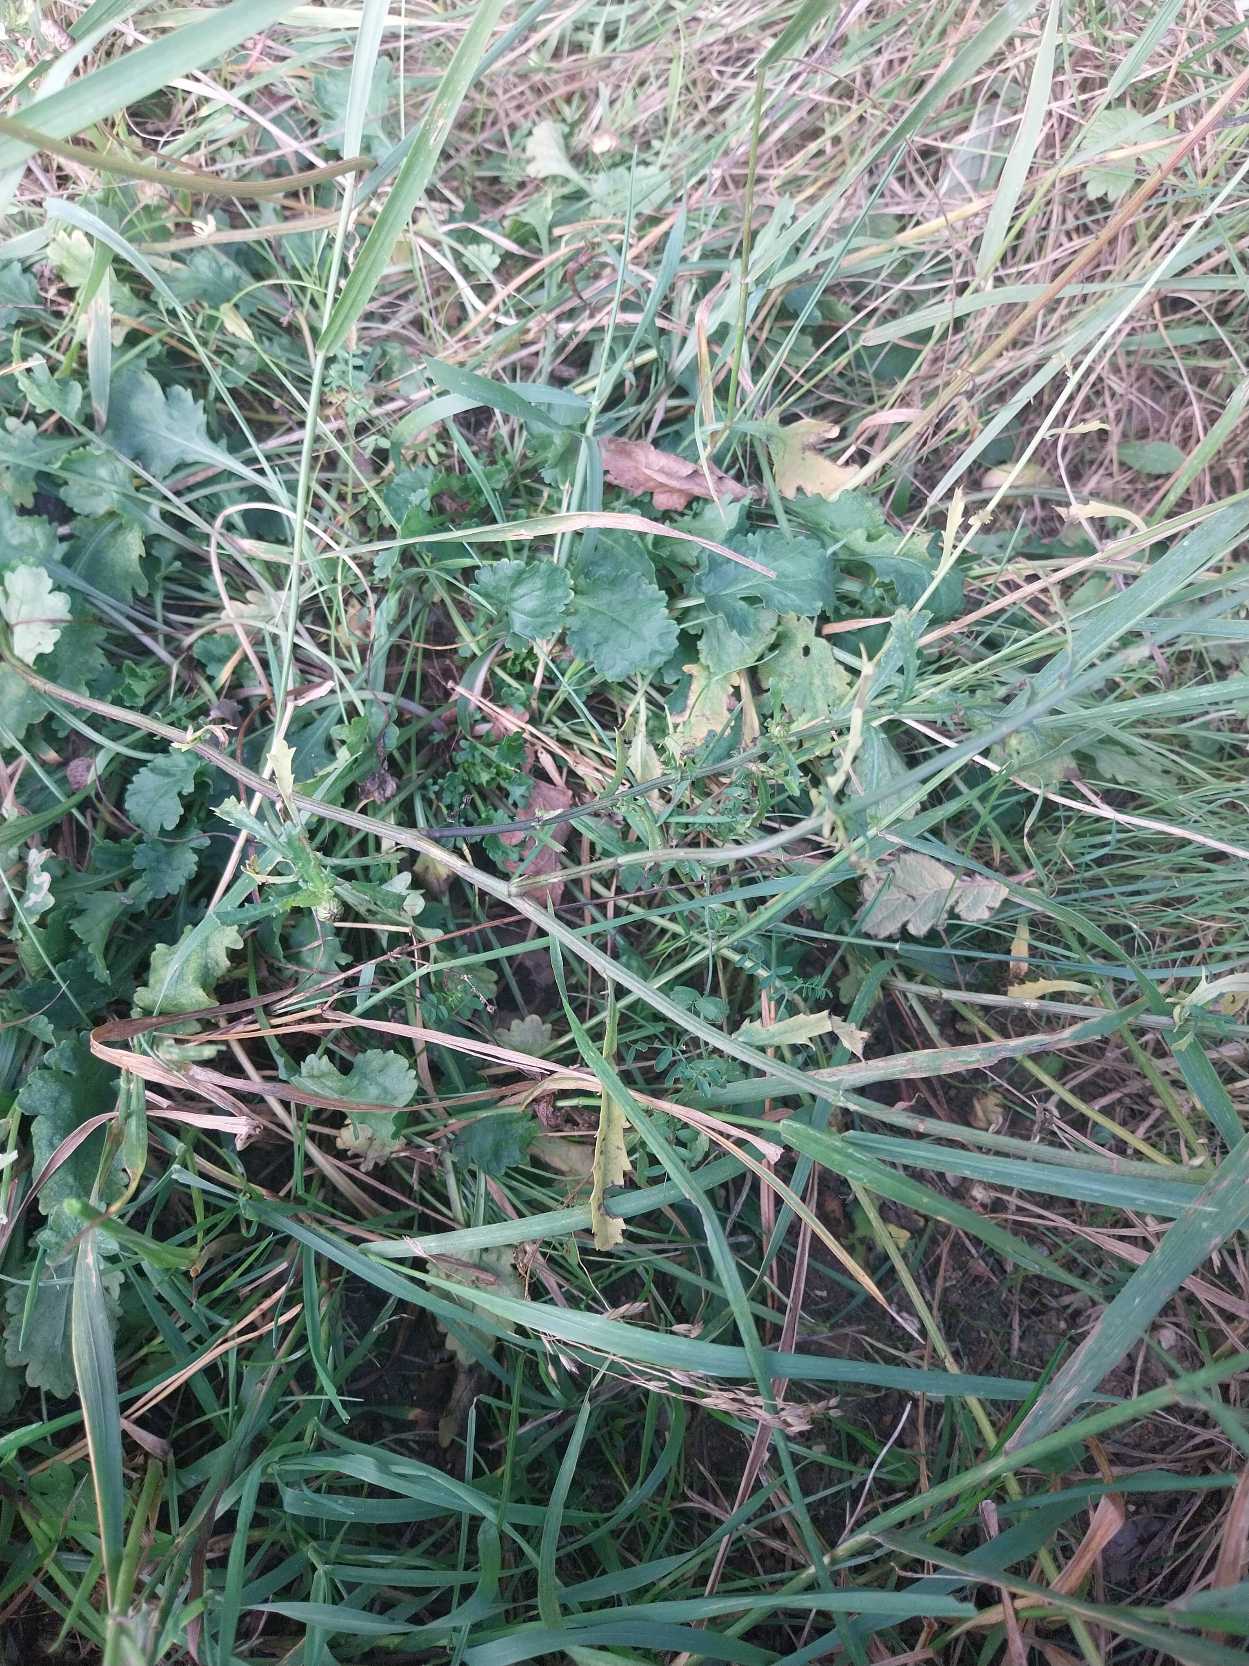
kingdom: Plantae
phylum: Tracheophyta
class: Magnoliopsida
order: Asterales
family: Asteraceae
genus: Leucanthemum
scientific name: Leucanthemum vulgare
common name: Hvid okseøje
